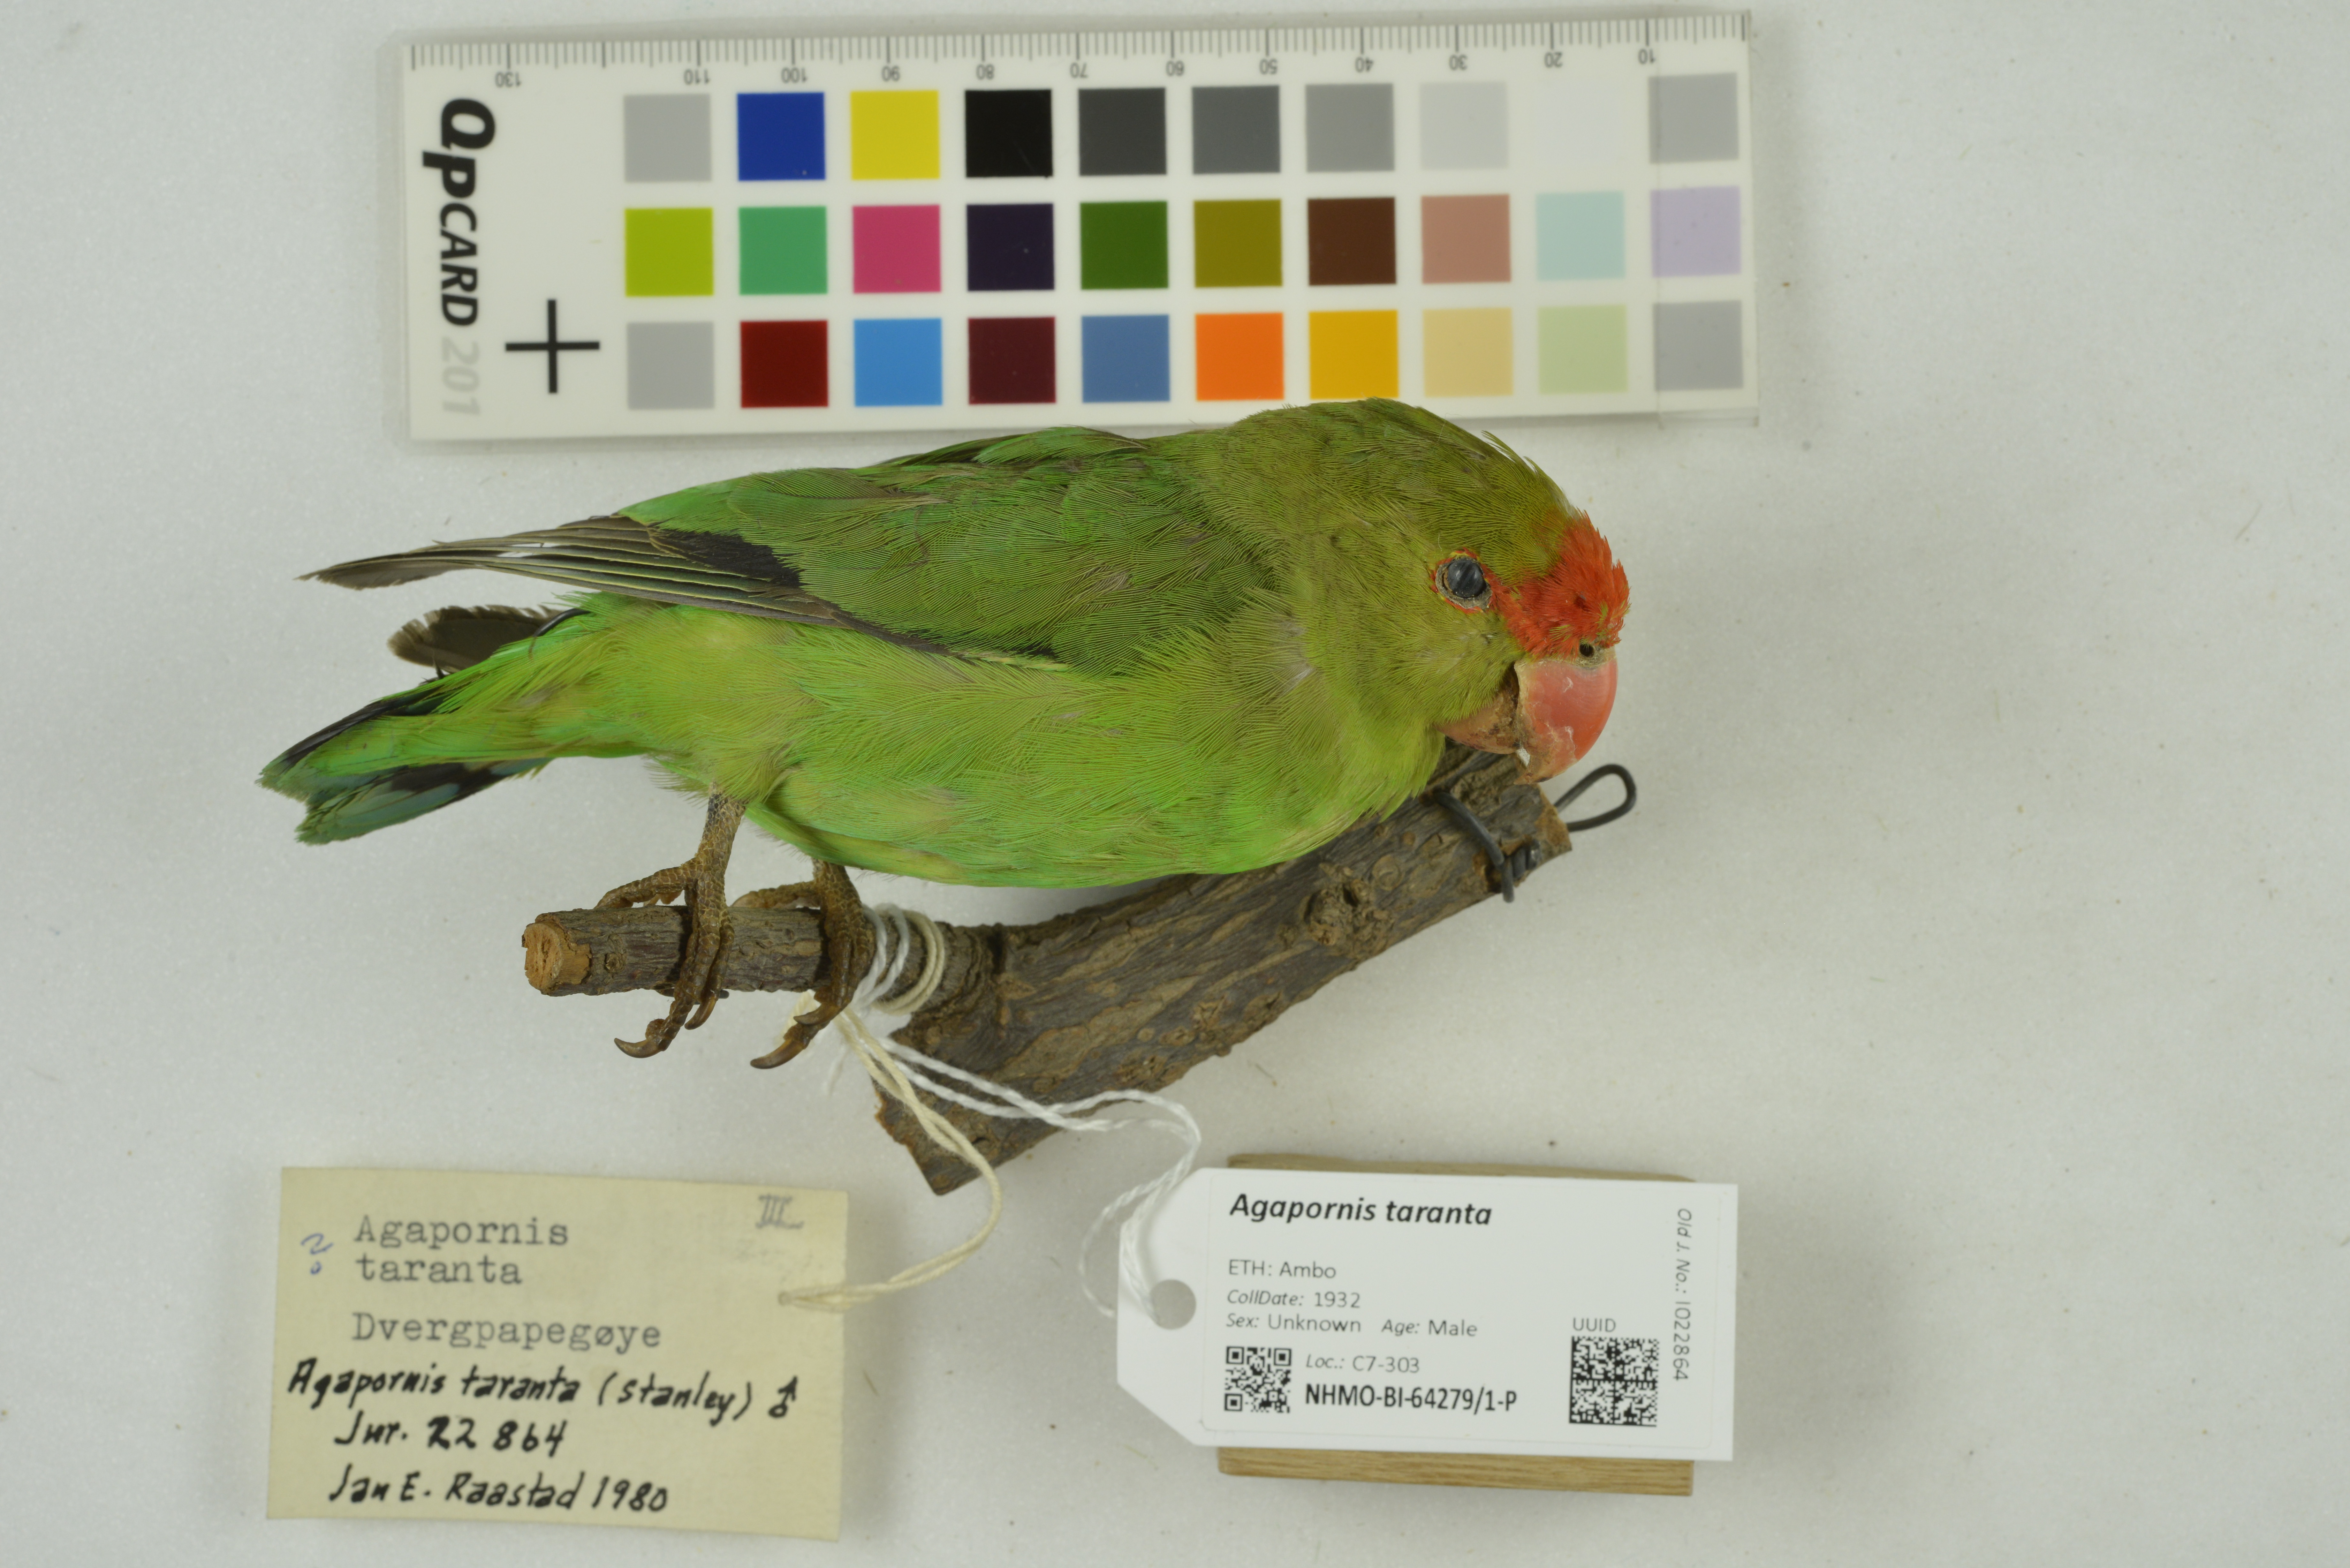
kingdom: Animalia
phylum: Chordata
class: Aves
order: Psittaciformes
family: Psittacidae
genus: Agapornis
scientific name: Agapornis taranta
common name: Black-winged lovebird
